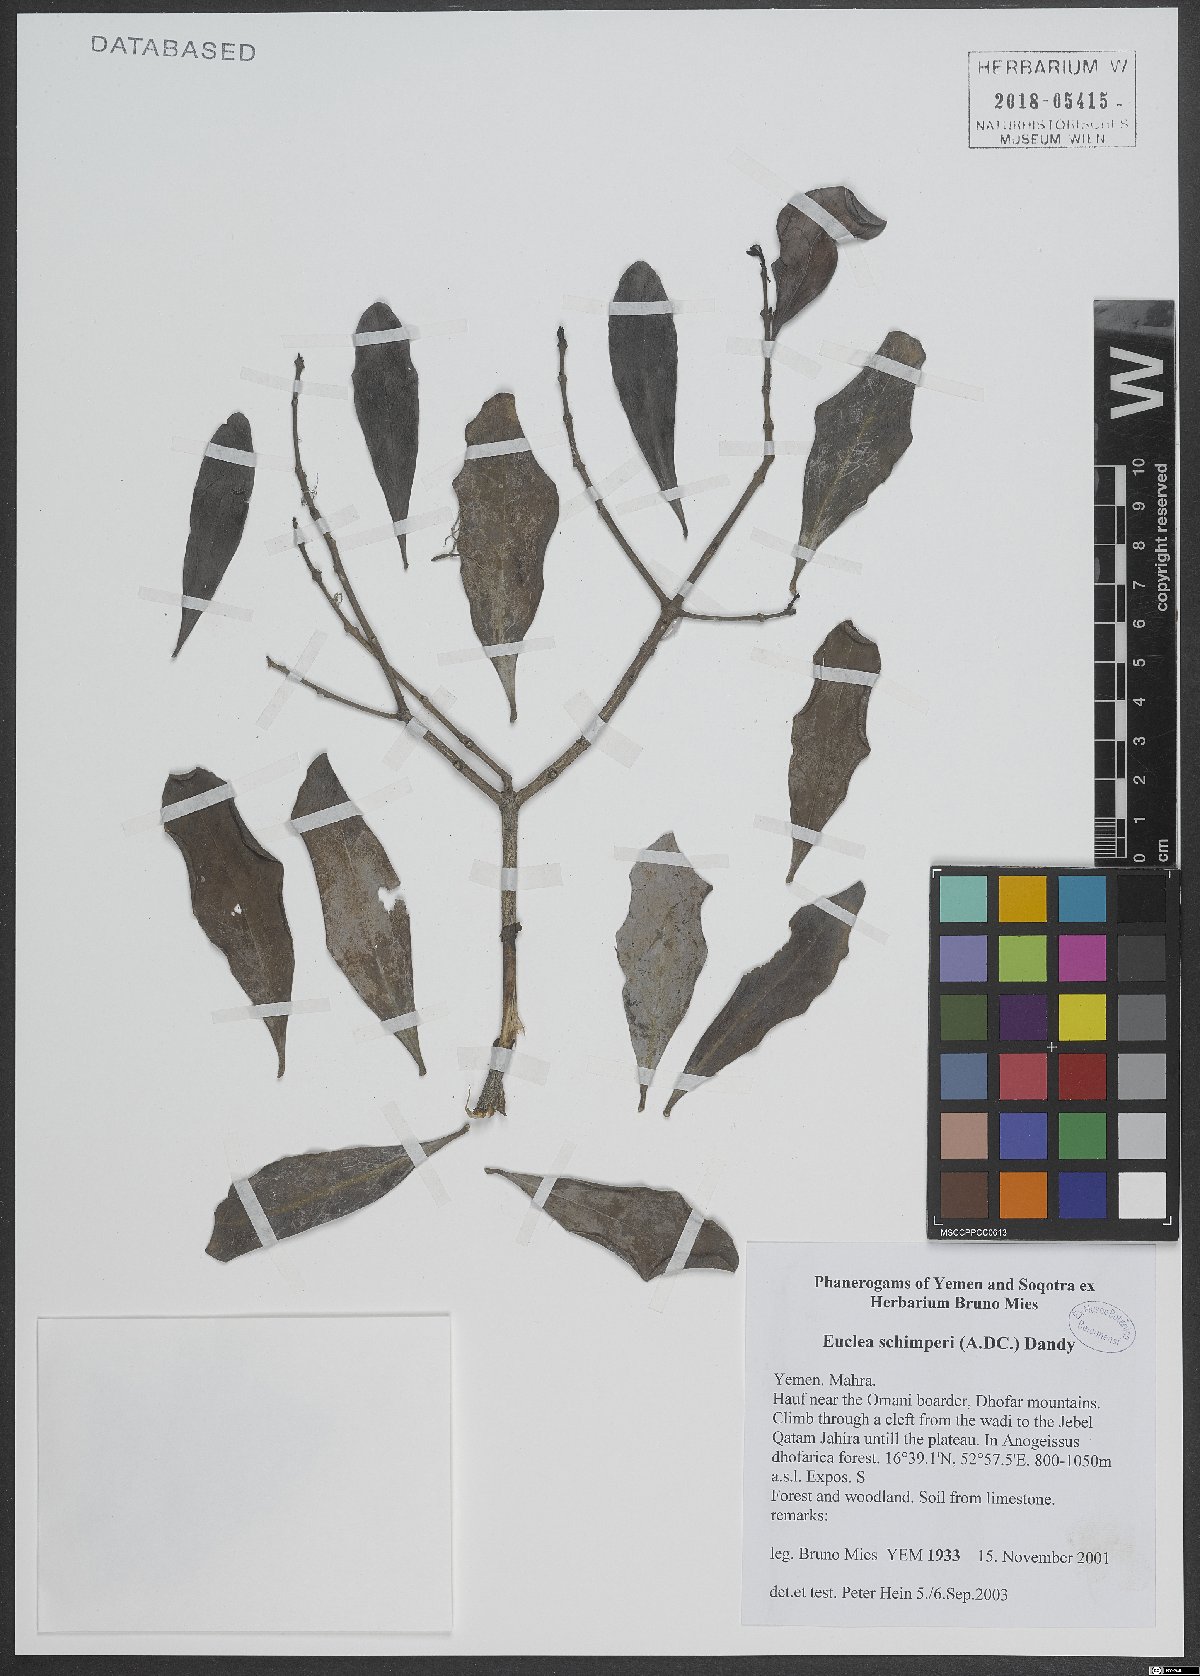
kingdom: Plantae
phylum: Tracheophyta
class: Magnoliopsida
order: Ericales
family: Ebenaceae
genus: Euclea
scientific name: Euclea racemosa
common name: Dune guarri
